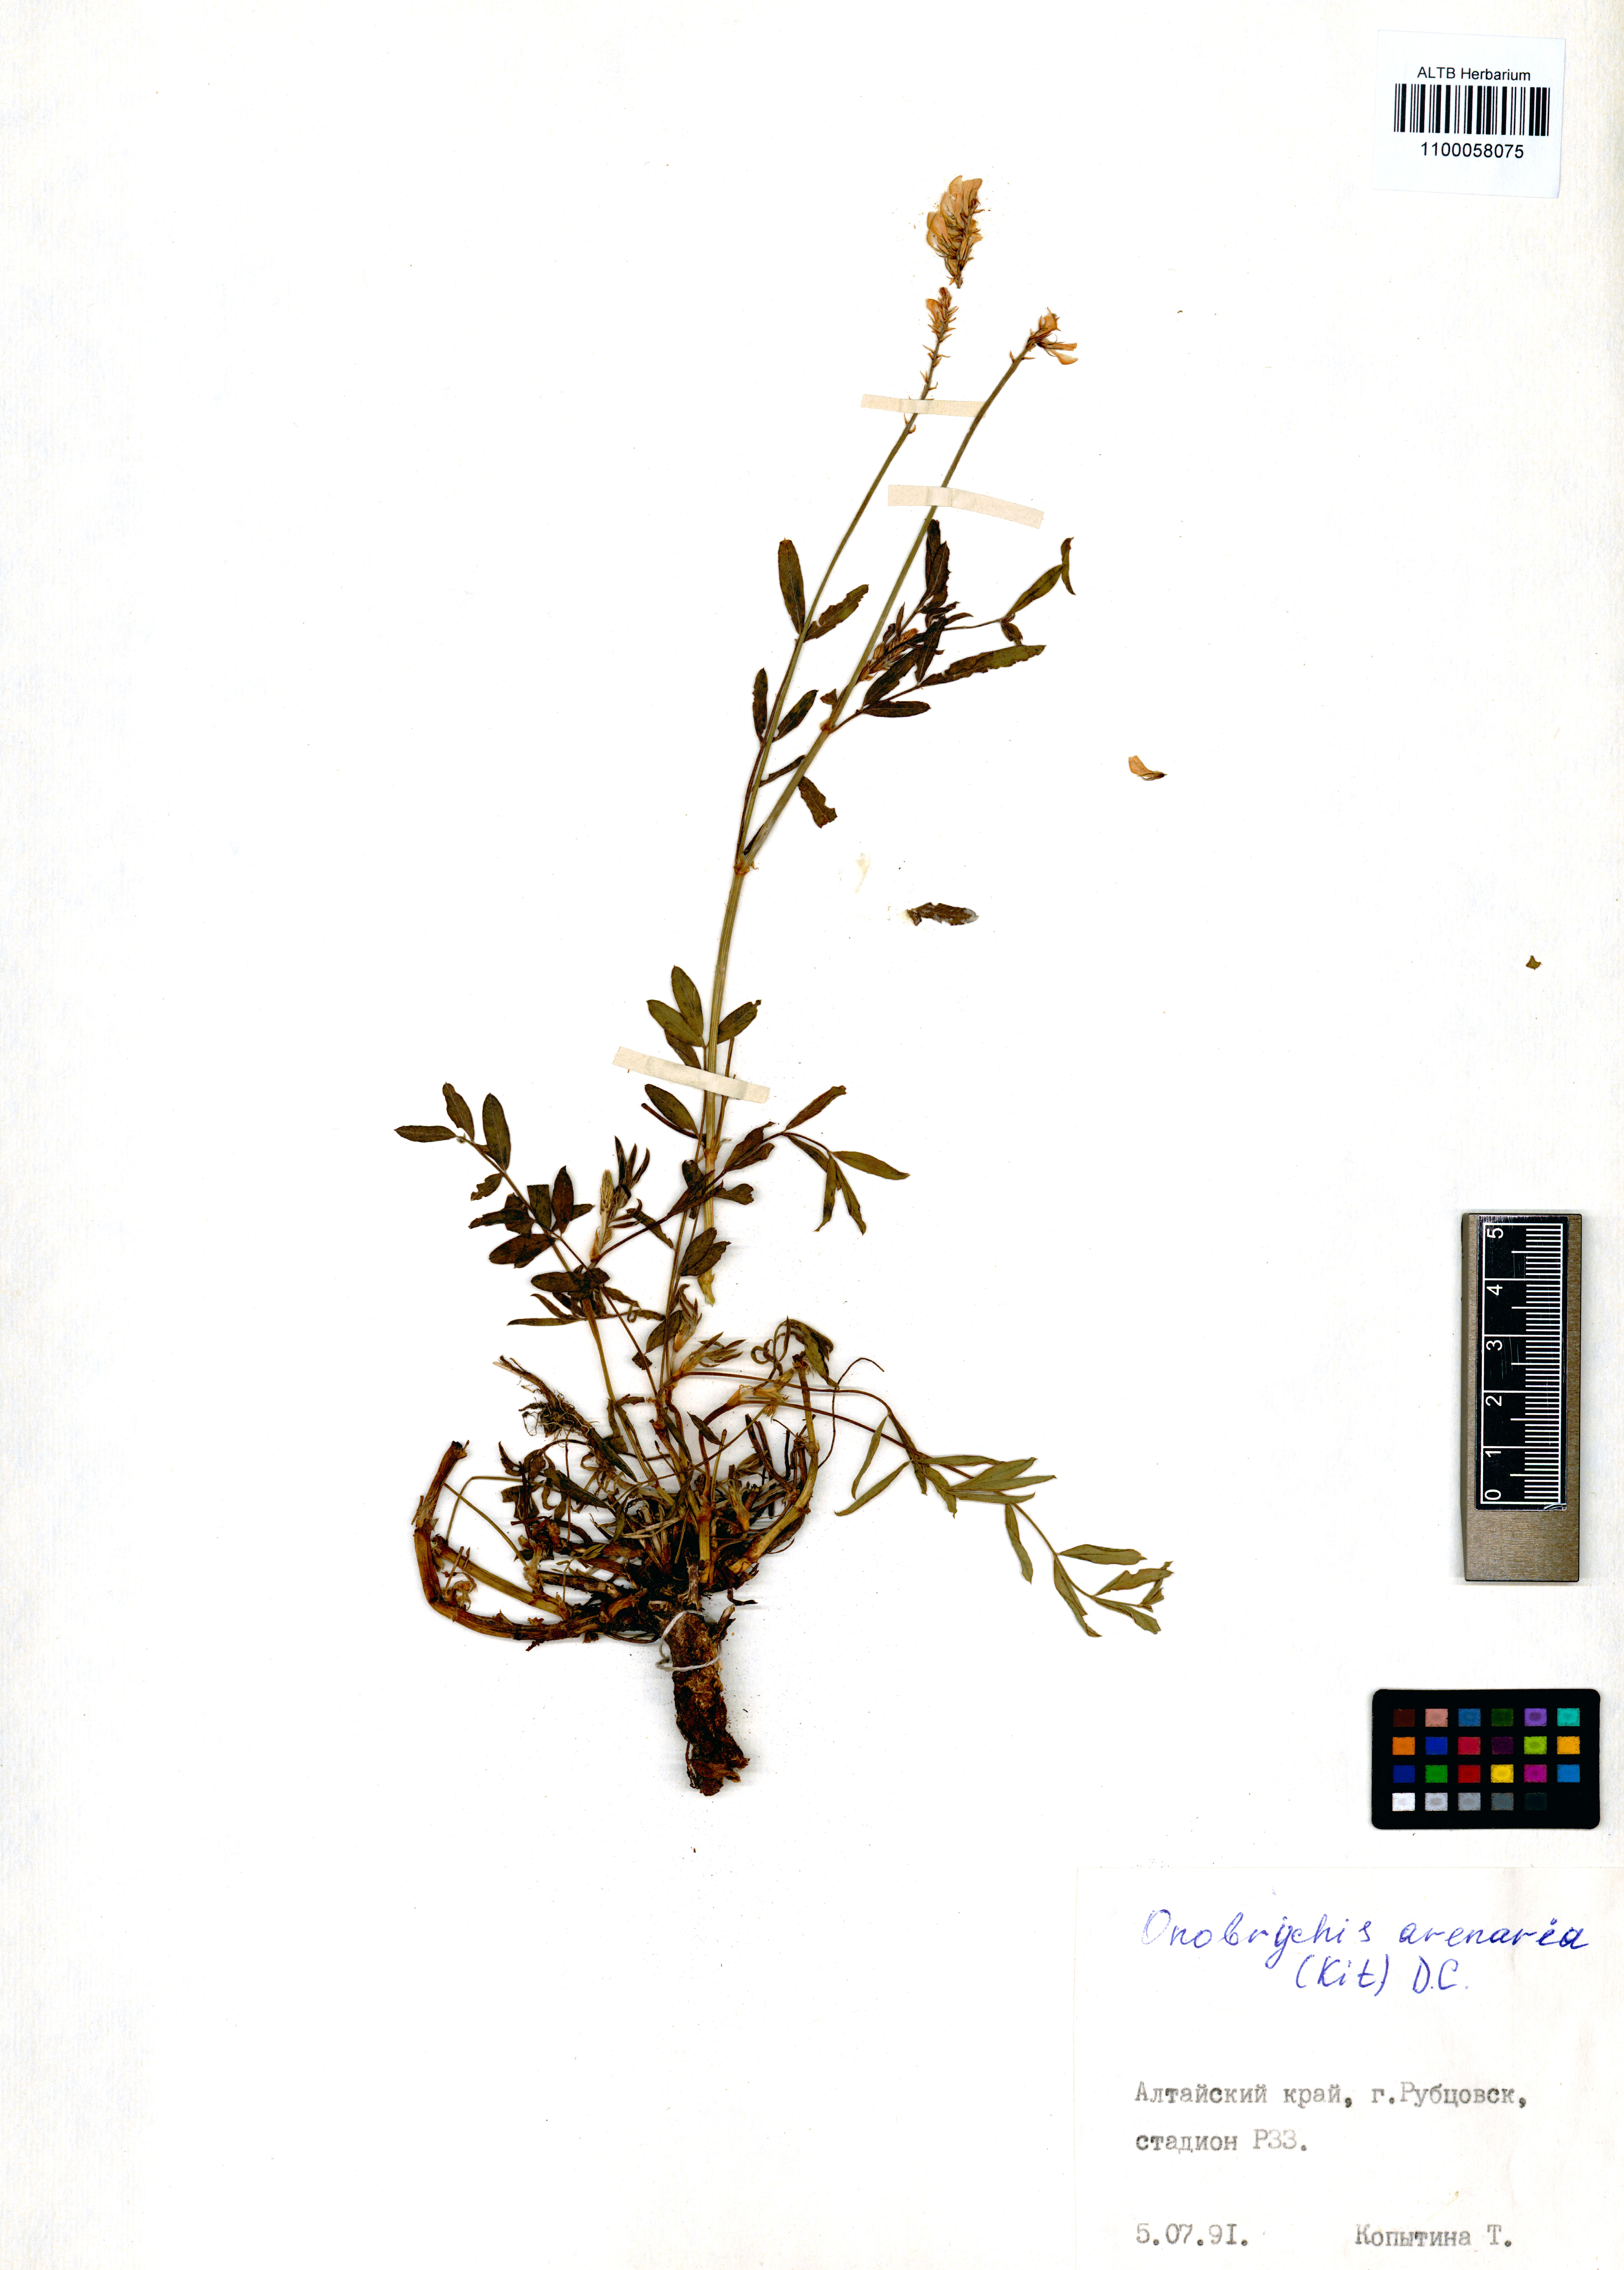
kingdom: Plantae
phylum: Tracheophyta
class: Magnoliopsida
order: Fabales
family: Fabaceae
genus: Onobrychis
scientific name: Onobrychis arenaria
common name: Sand esparcet
